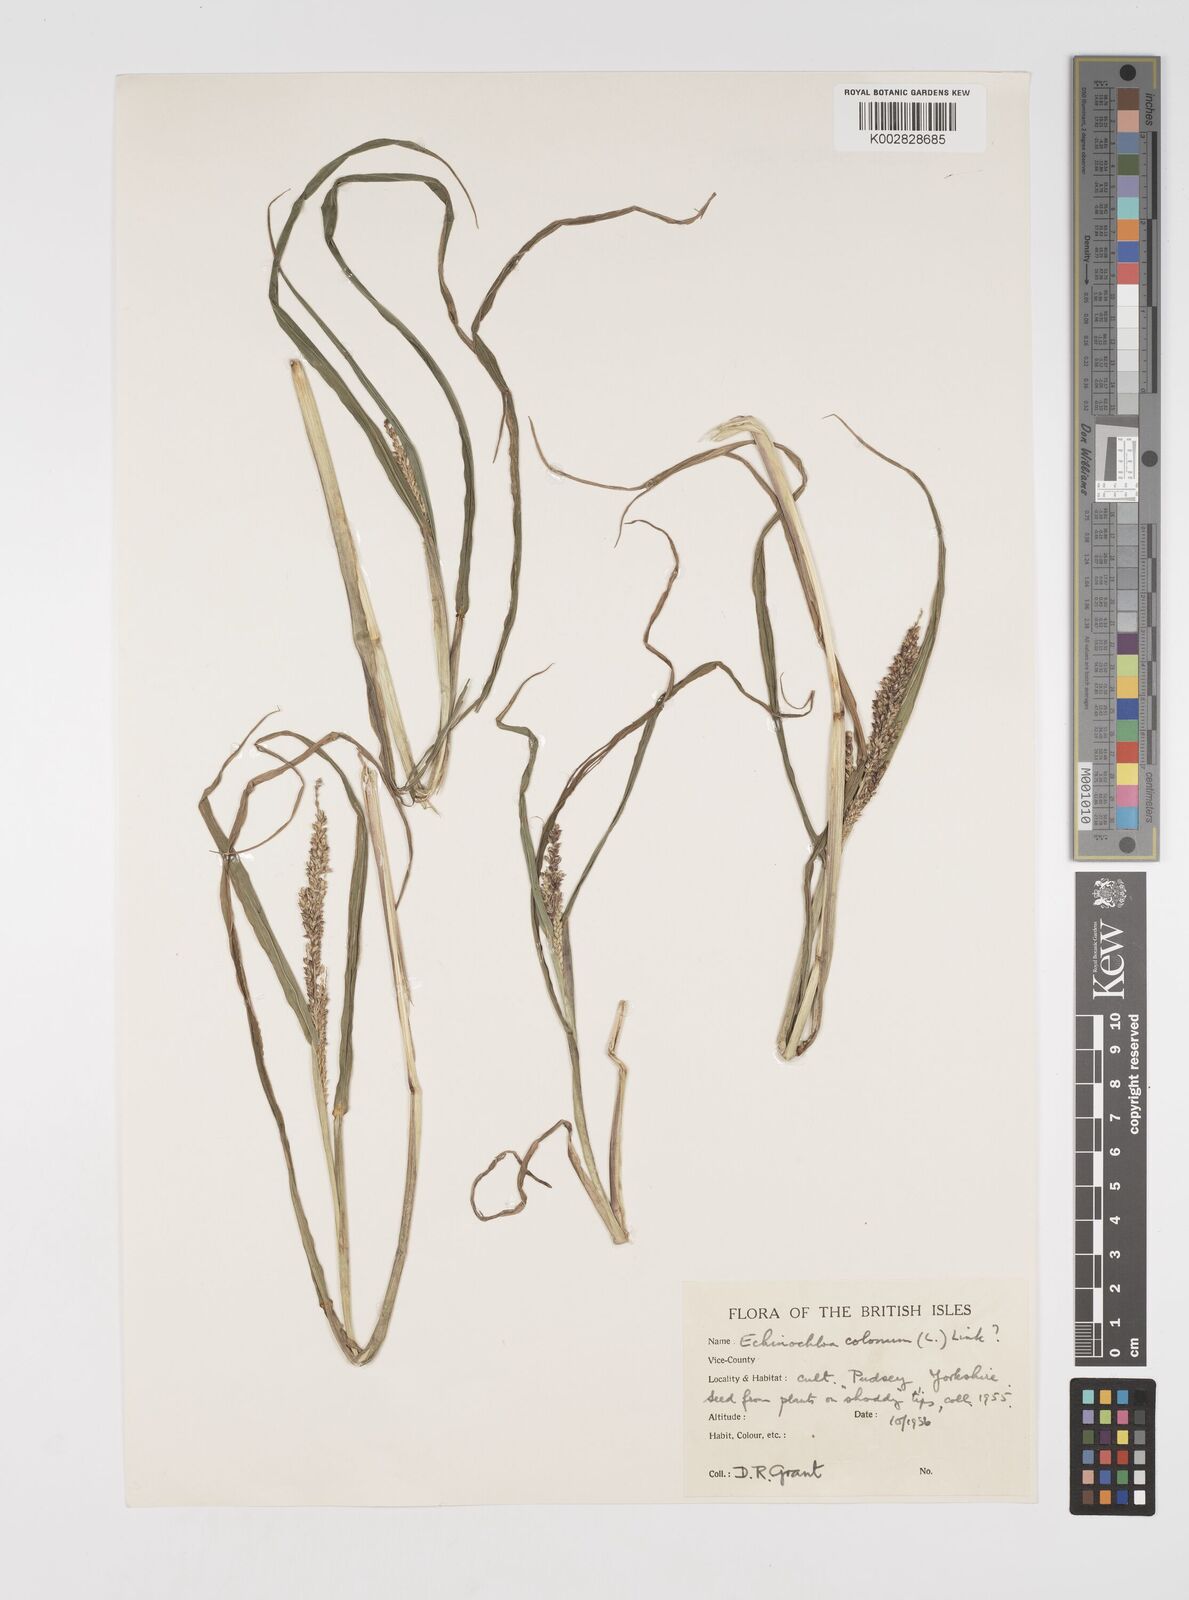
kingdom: Plantae
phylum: Tracheophyta
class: Liliopsida
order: Poales
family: Poaceae
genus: Echinochloa
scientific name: Echinochloa colonum
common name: Jungle rice
